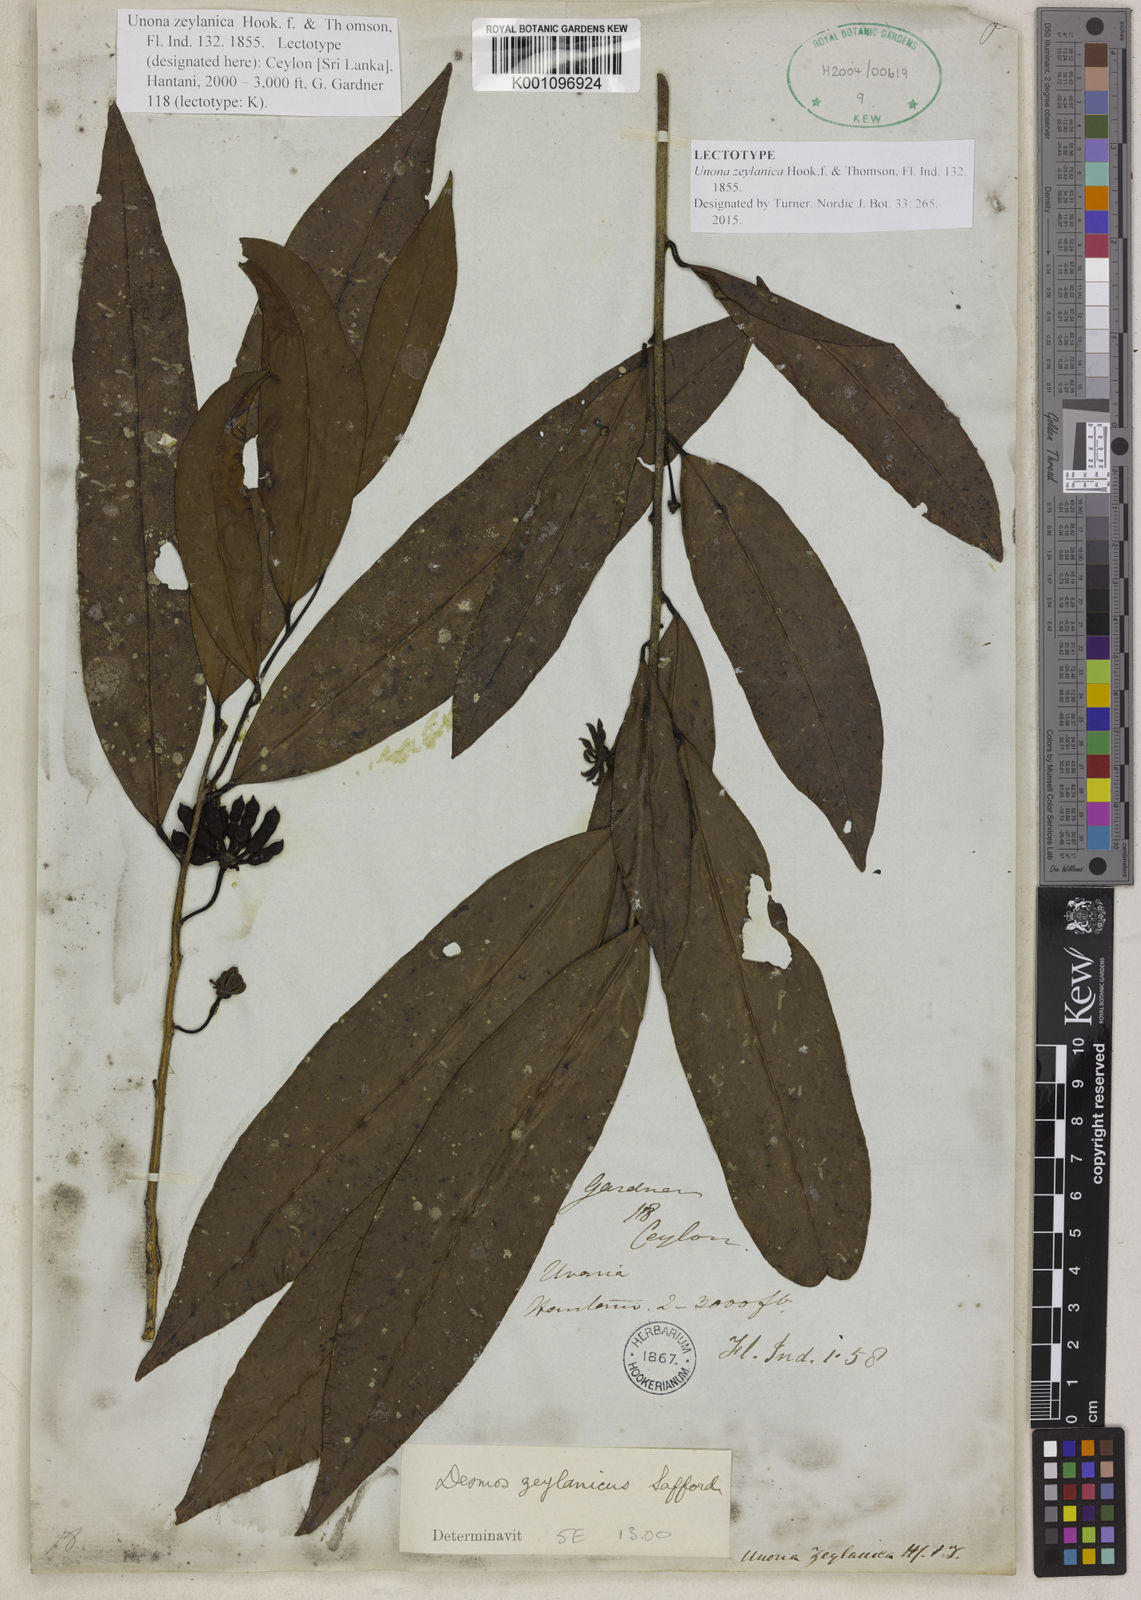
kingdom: Plantae
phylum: Tracheophyta
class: Magnoliopsida
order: Magnoliales
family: Annonaceae
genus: Desmos
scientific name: Desmos zeylanicus
